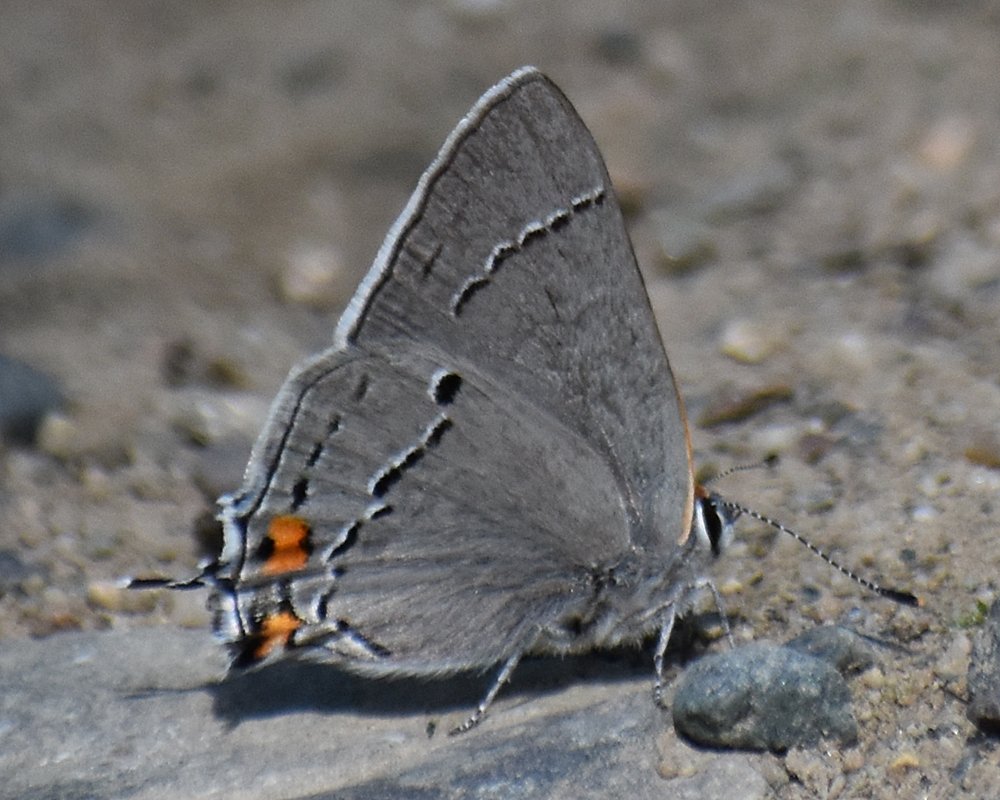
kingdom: Animalia
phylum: Arthropoda
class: Insecta
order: Lepidoptera
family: Lycaenidae
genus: Strymon
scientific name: Strymon melinus
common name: Gray Hairstreak
